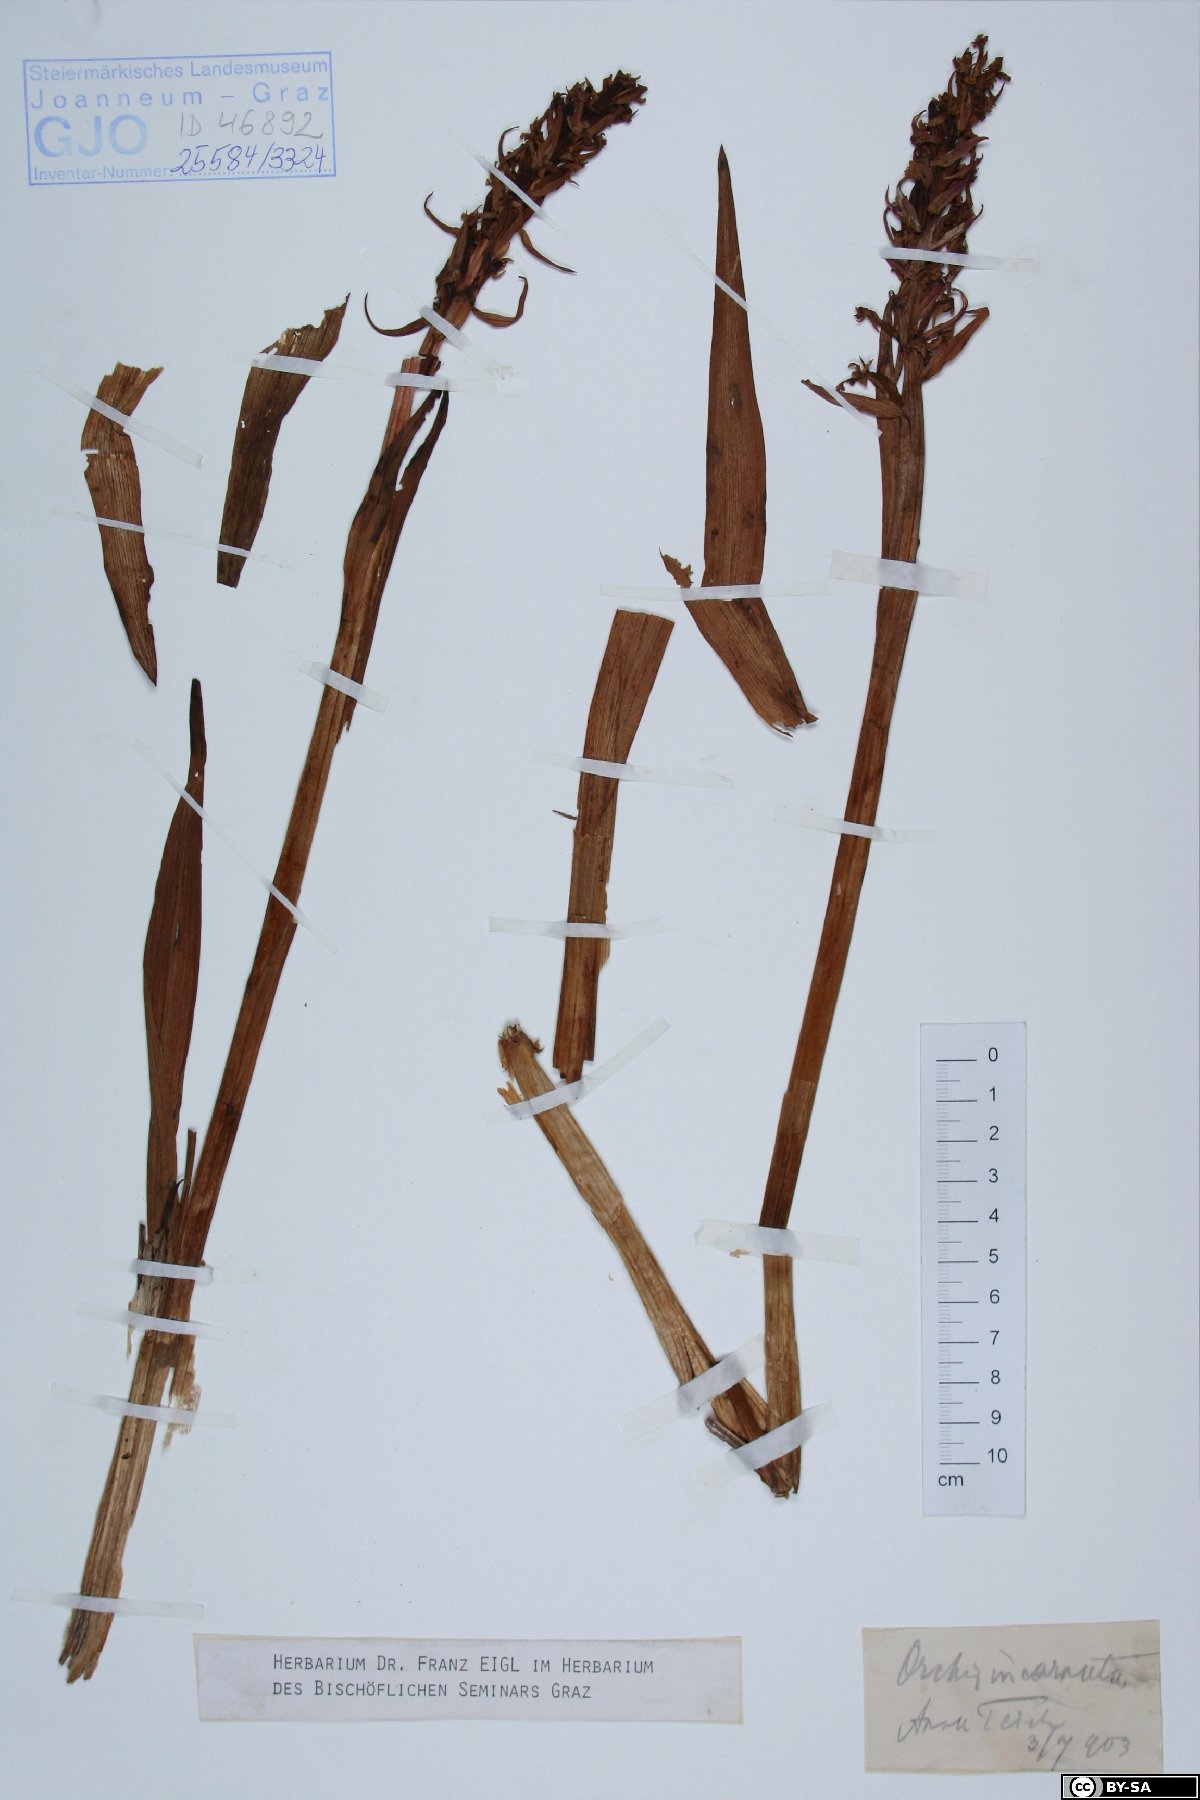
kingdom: Plantae
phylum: Tracheophyta
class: Liliopsida
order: Asparagales
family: Orchidaceae
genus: Dactylorhiza
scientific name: Dactylorhiza incarnata
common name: Early marsh-orchid
